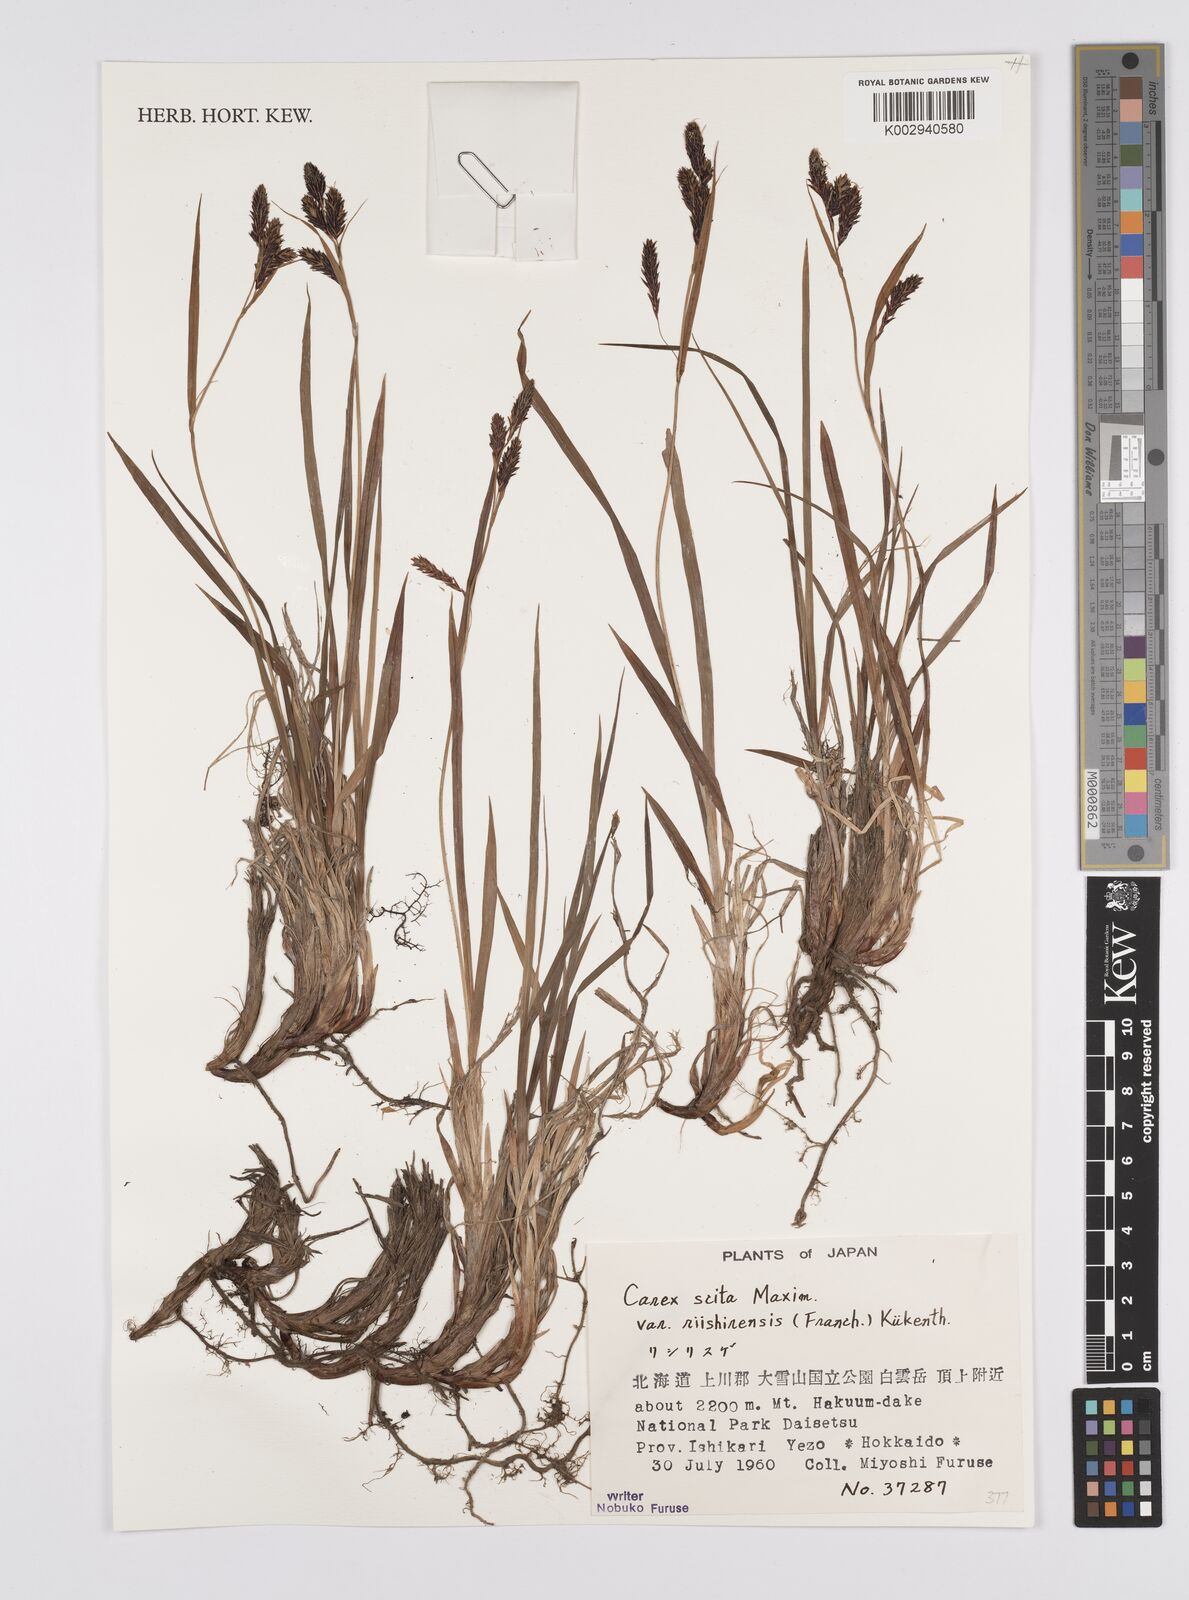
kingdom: Plantae
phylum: Tracheophyta
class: Liliopsida
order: Poales
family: Cyperaceae
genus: Carex
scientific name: Carex scita
